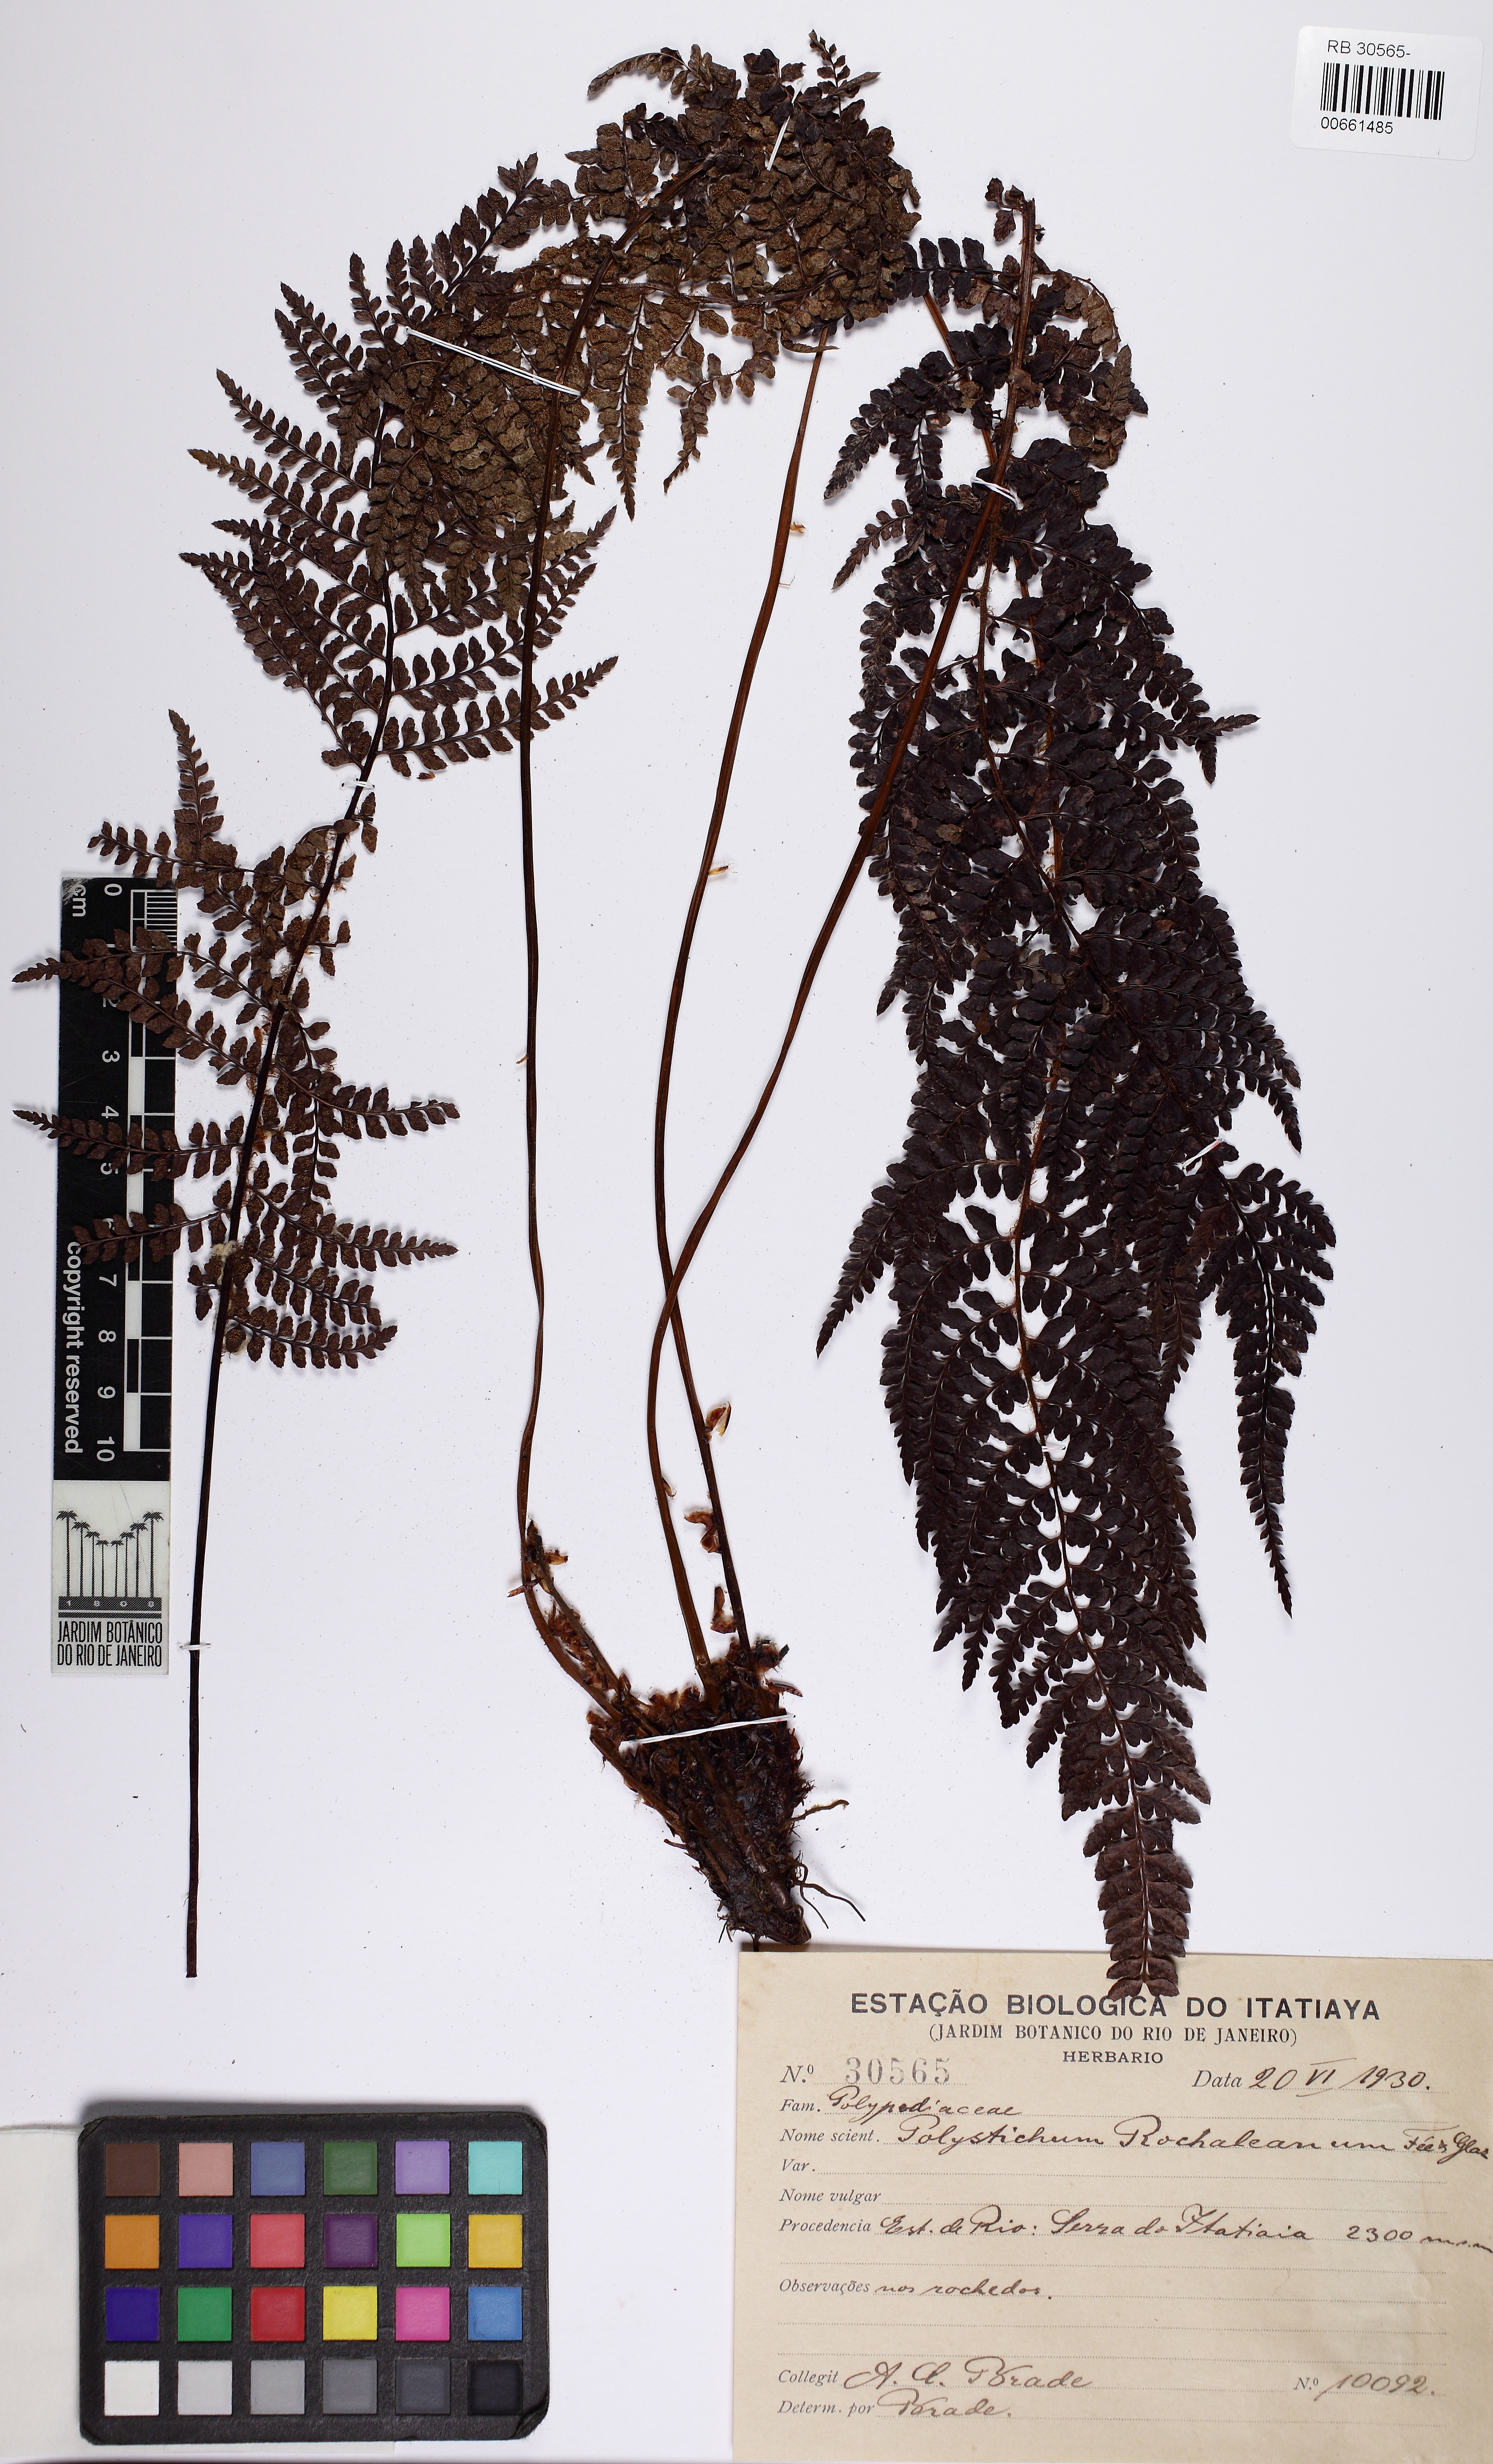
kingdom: Plantae
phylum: Tracheophyta
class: Polypodiopsida
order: Polypodiales
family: Dryopteridaceae
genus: Polystichum
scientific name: Polystichum rochaleanum
